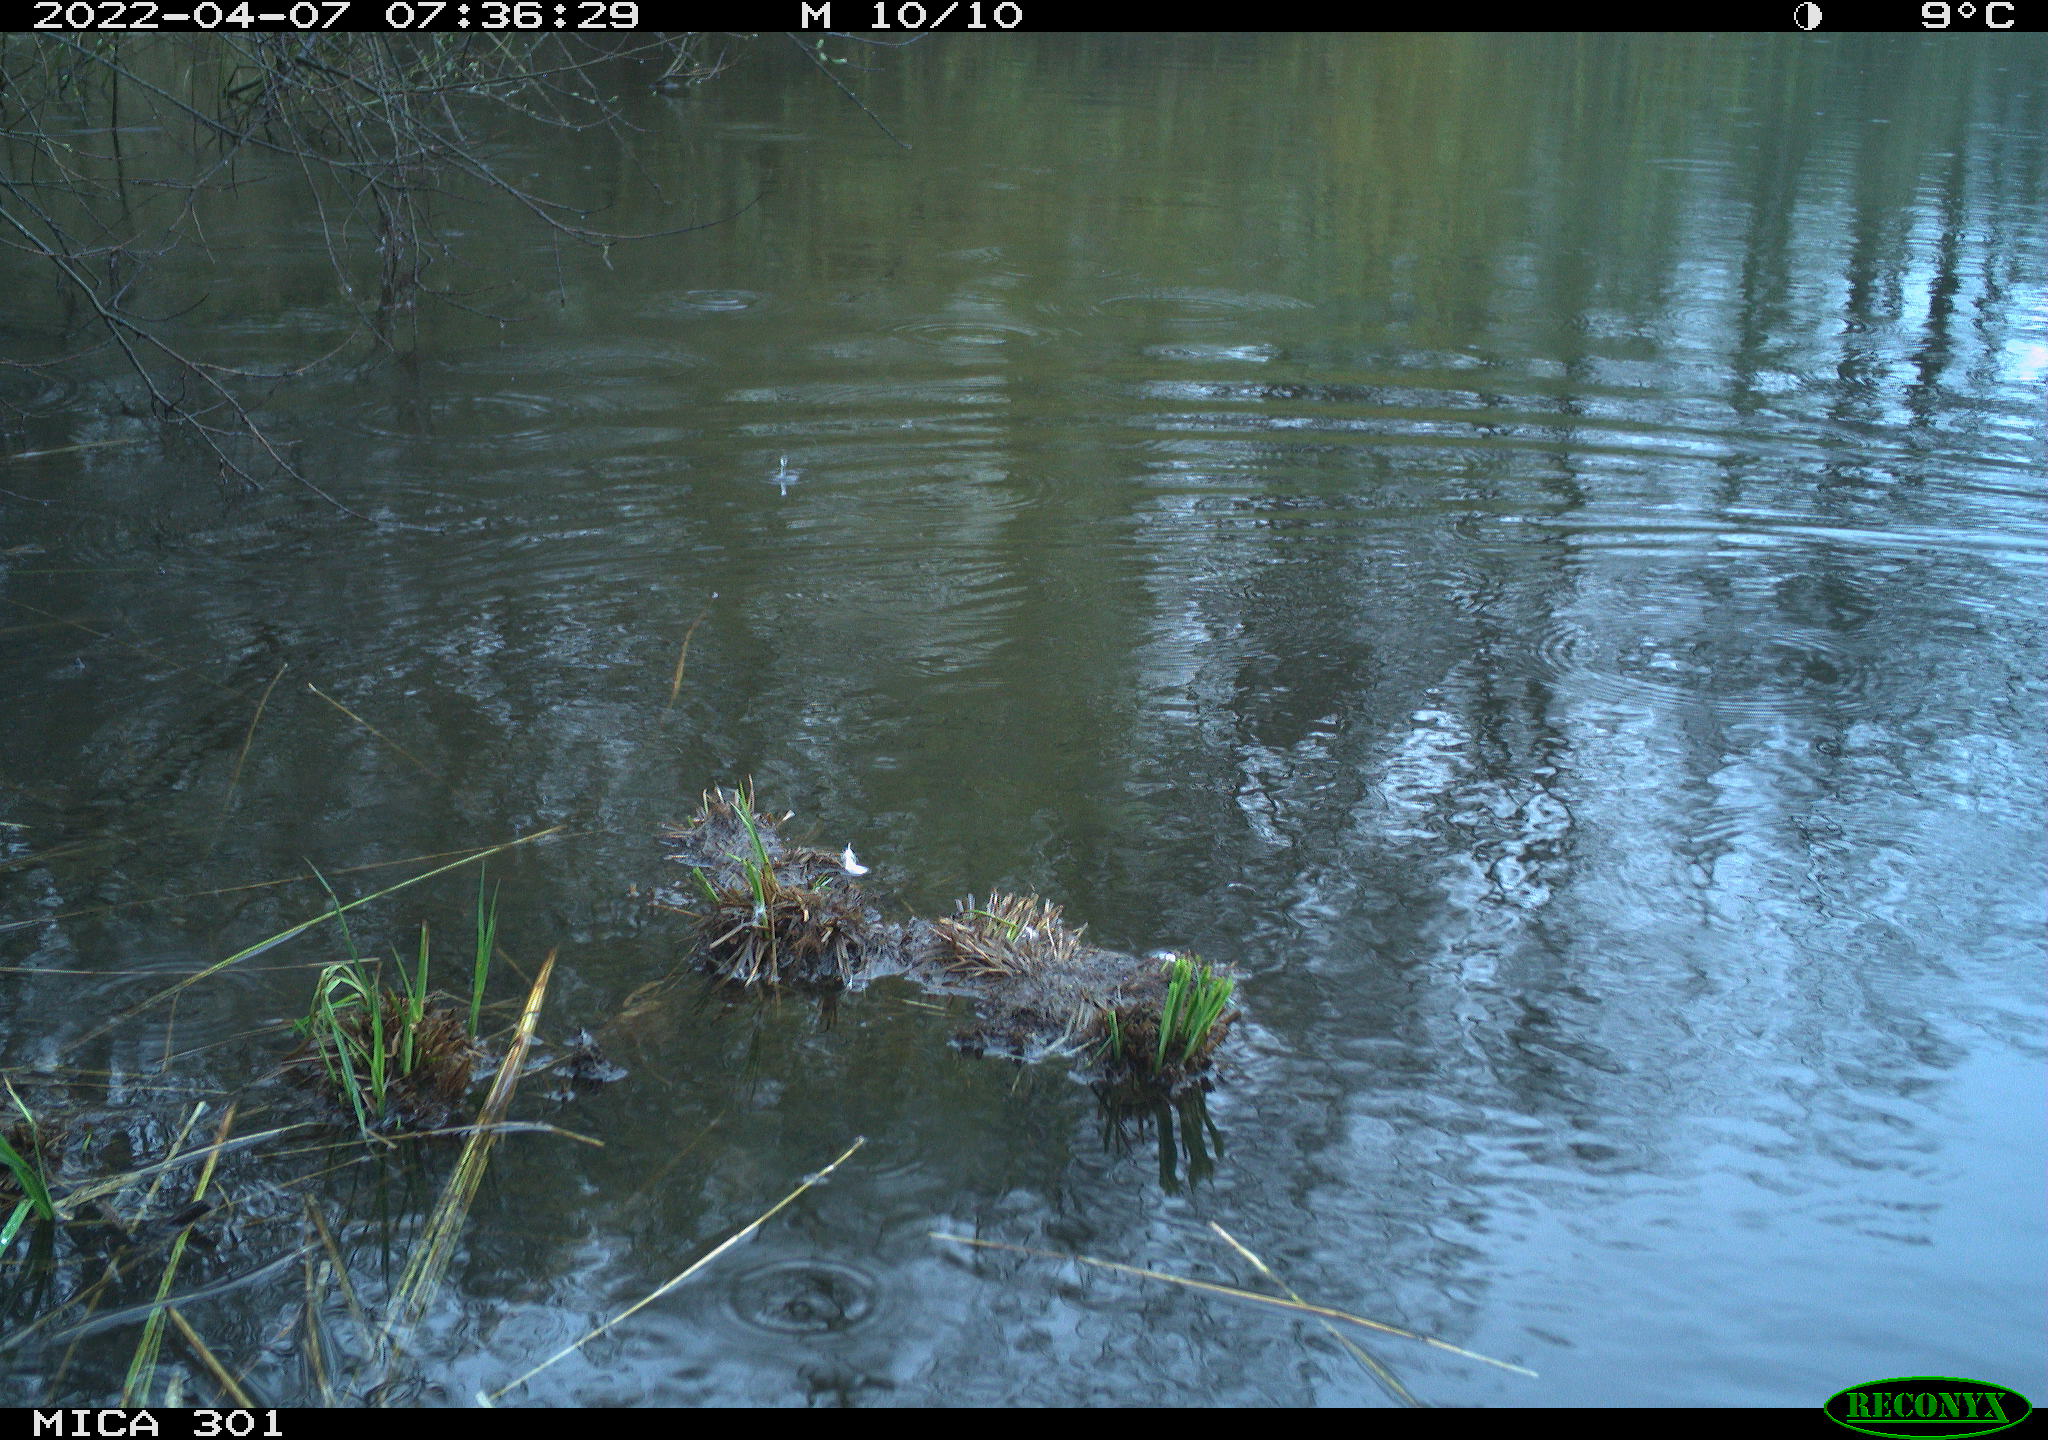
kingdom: Animalia
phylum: Chordata
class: Aves
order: Gruiformes
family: Rallidae
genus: Fulica
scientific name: Fulica atra
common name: Eurasian coot
